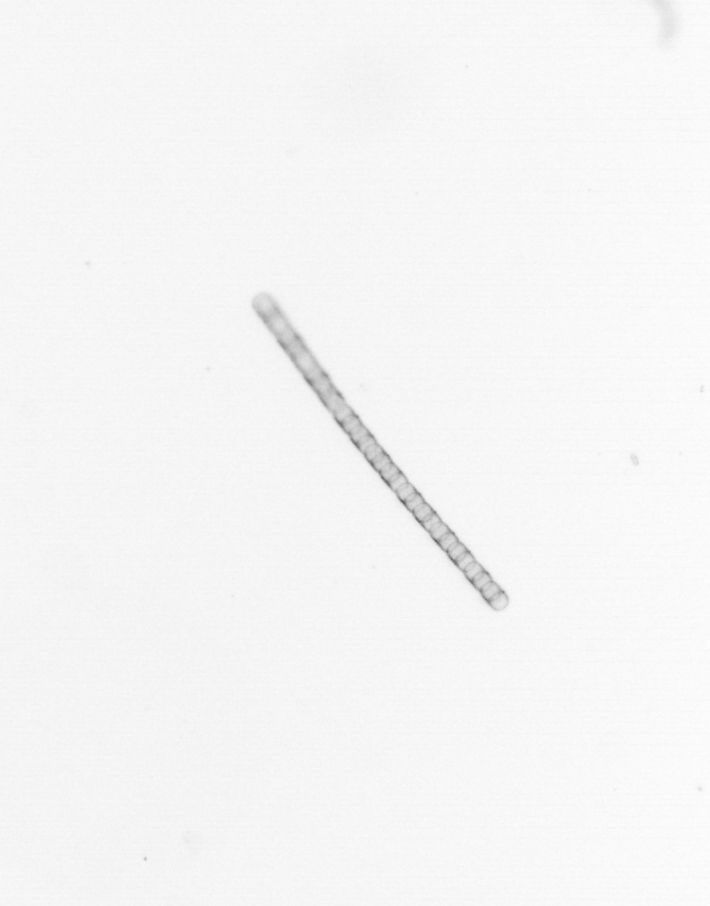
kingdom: Chromista
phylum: Ochrophyta
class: Bacillariophyceae
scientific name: Bacillariophyceae
